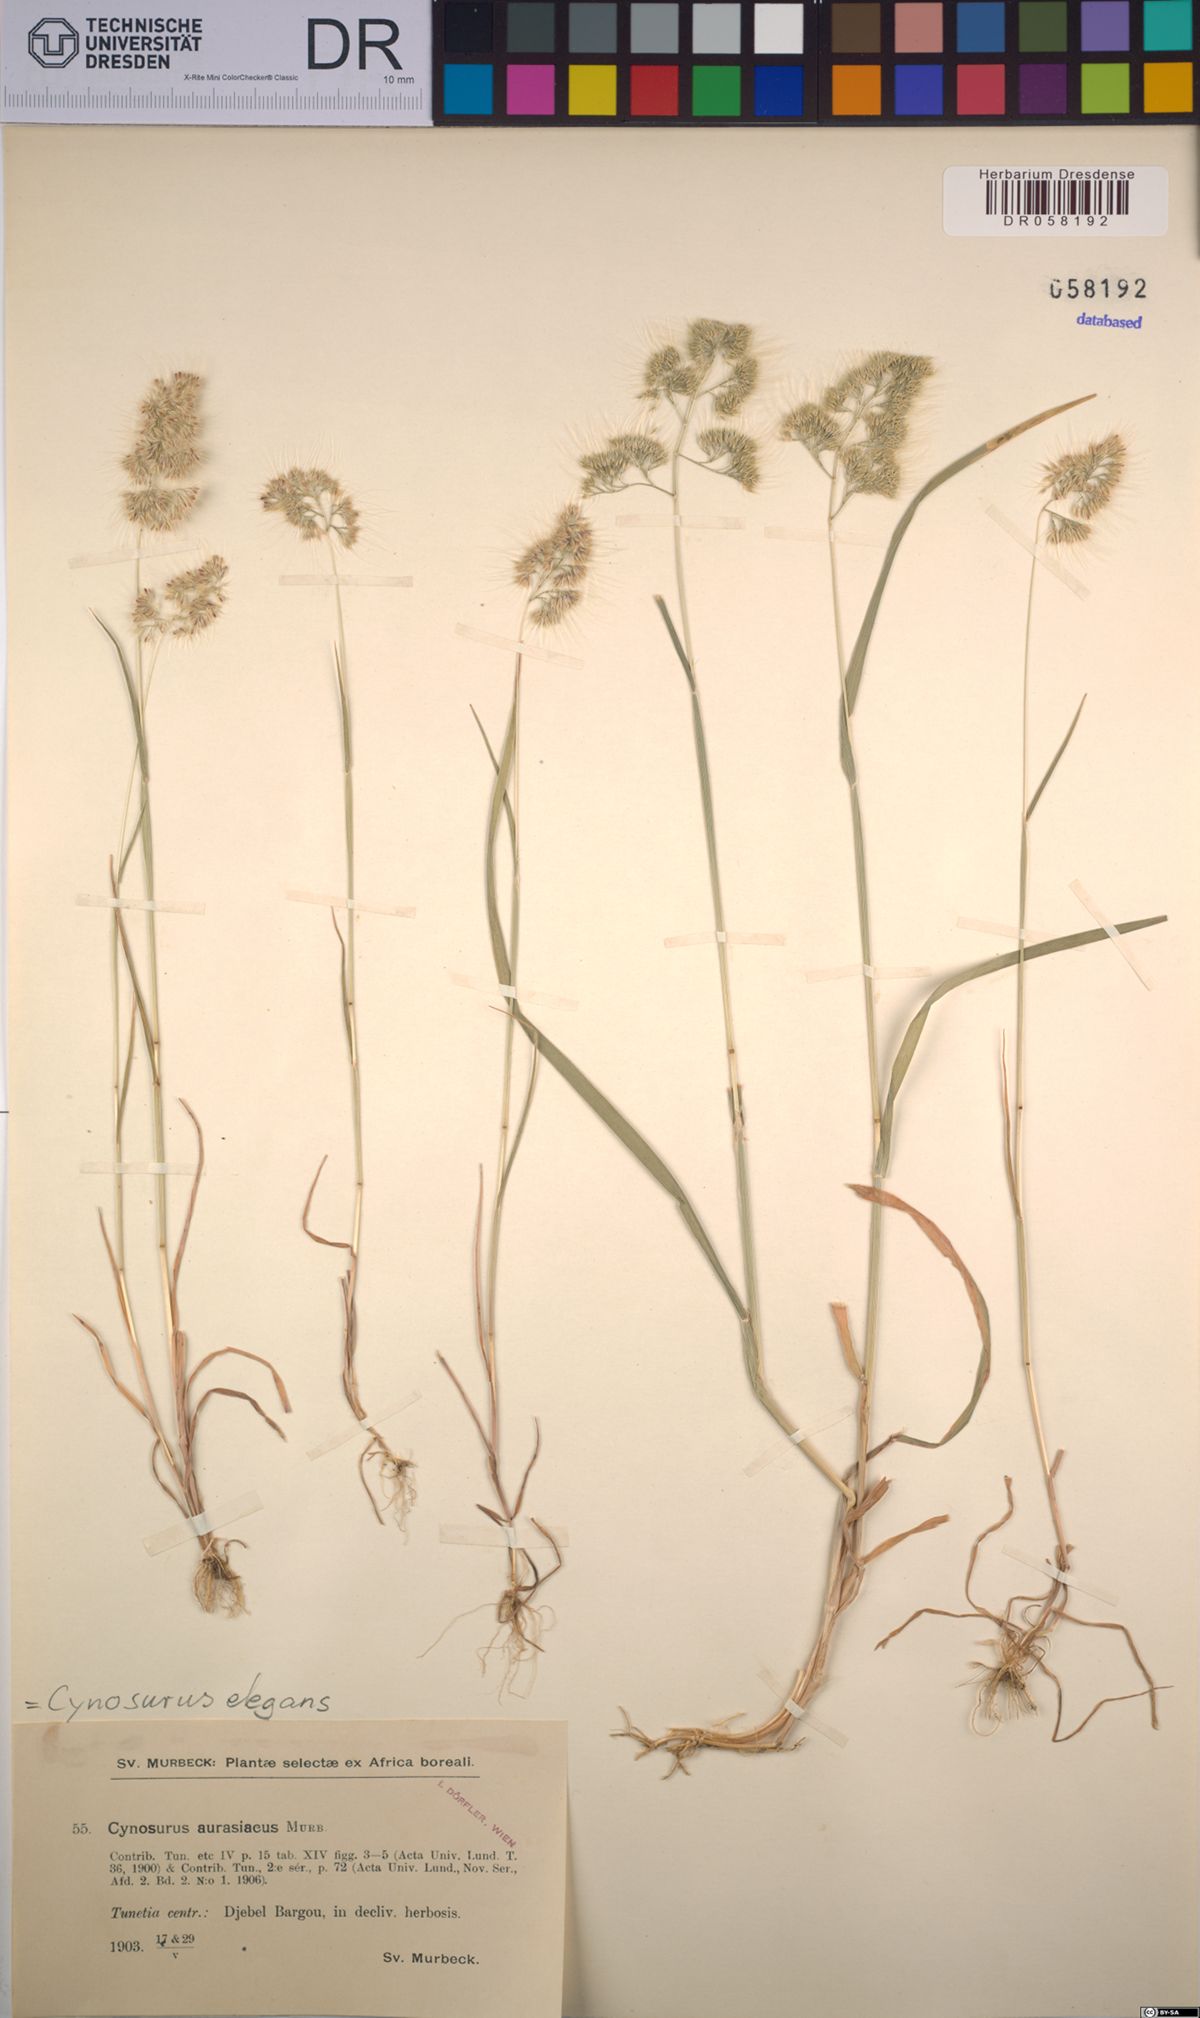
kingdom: Plantae
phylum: Tracheophyta
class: Liliopsida
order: Poales
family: Poaceae
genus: Cynosurus
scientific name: Cynosurus elegans
